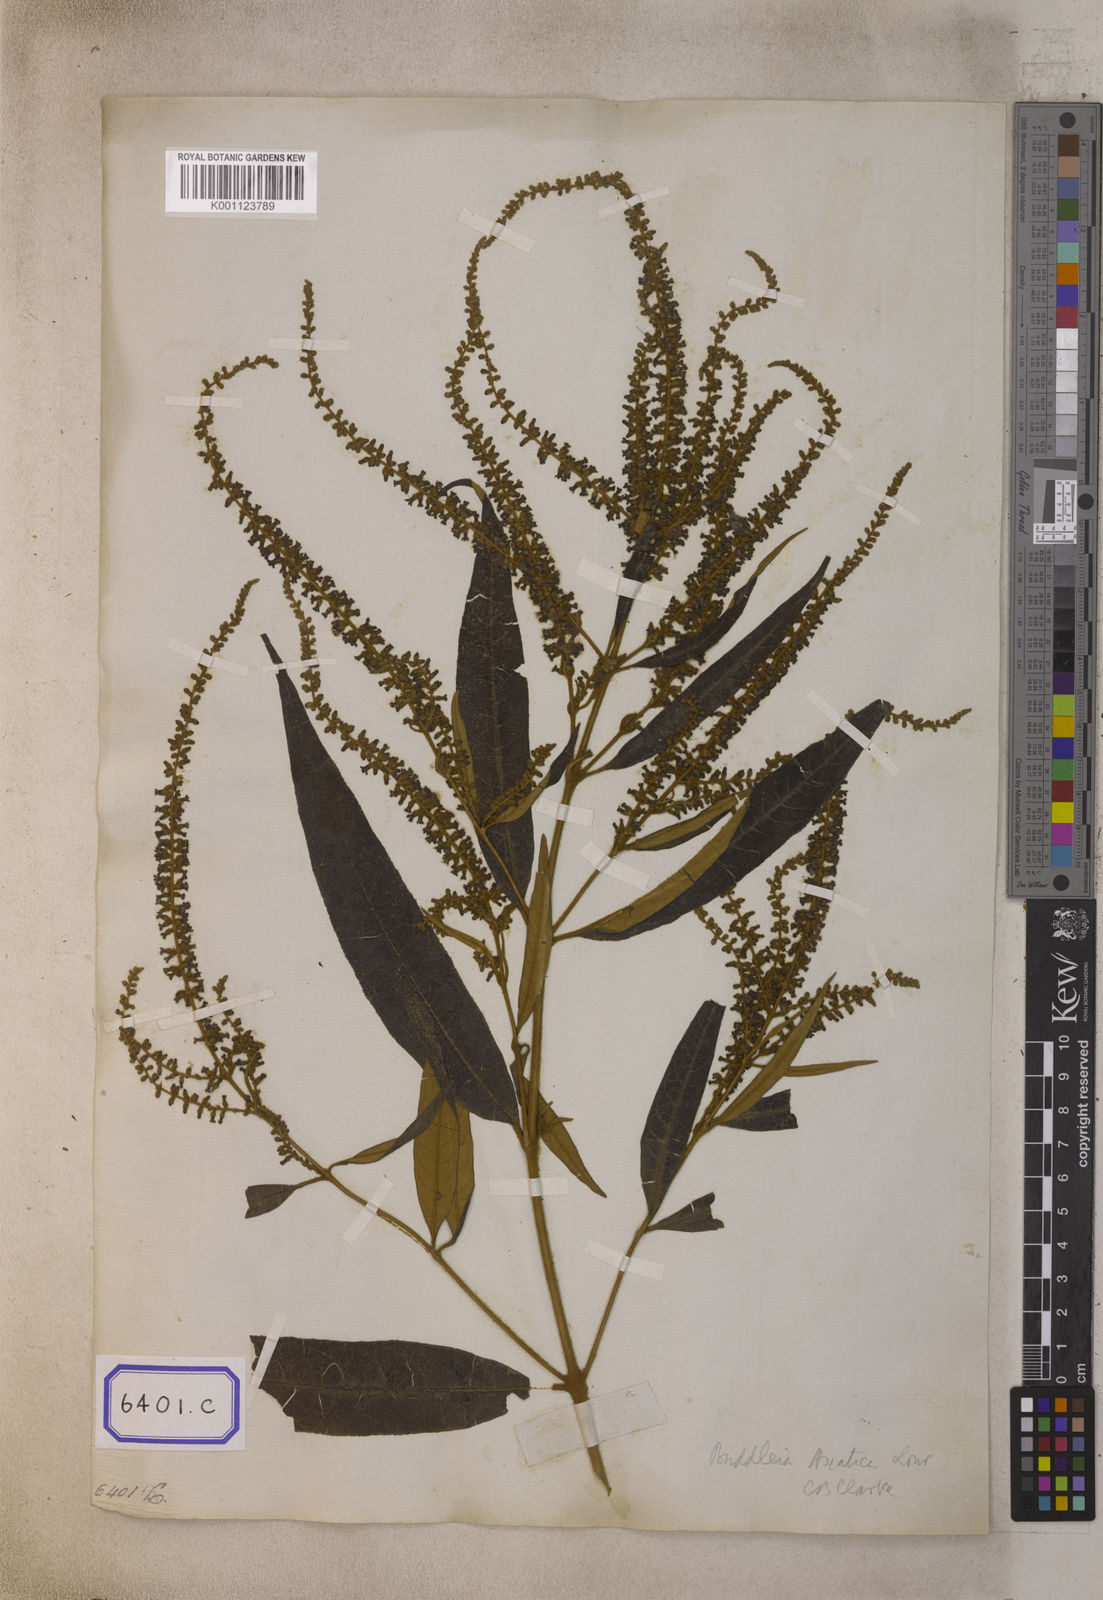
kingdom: Plantae
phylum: Tracheophyta
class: Magnoliopsida
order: Lamiales
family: Scrophulariaceae
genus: Buddleja
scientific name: Buddleja
